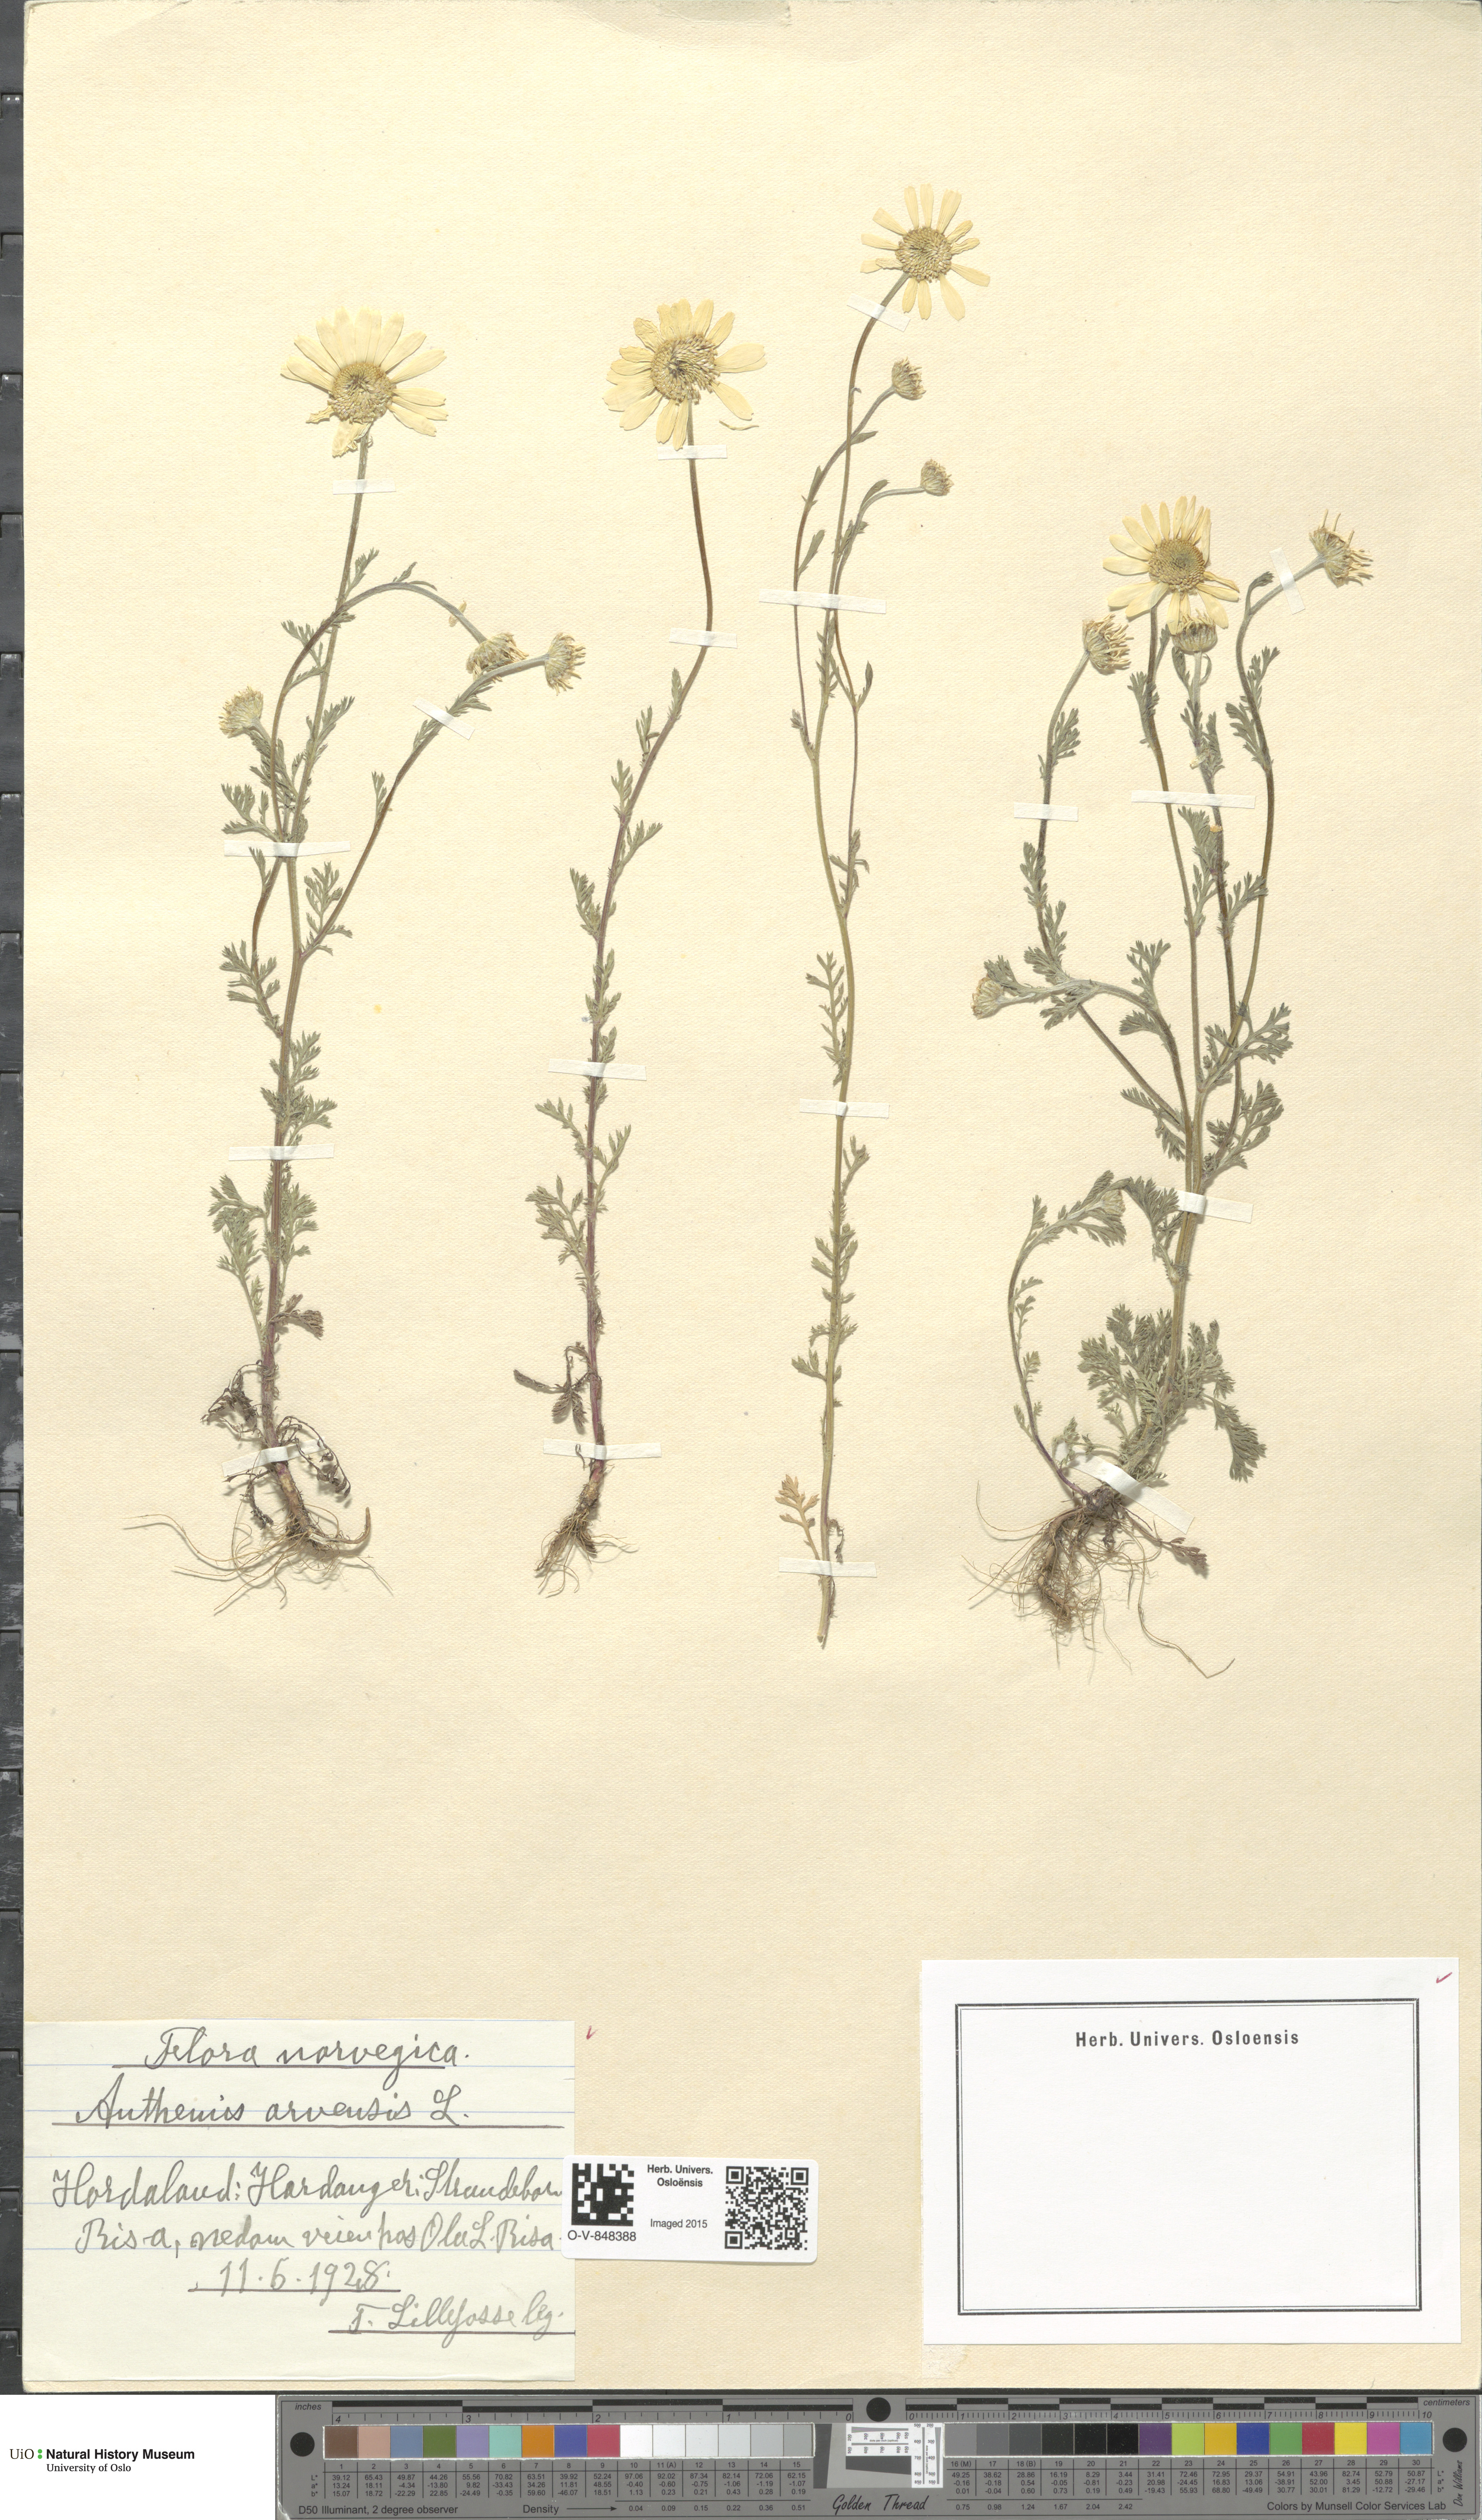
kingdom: Plantae
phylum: Tracheophyta
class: Magnoliopsida
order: Asterales
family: Asteraceae
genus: Anthemis
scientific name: Anthemis arvensis
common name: Corn chamomile
